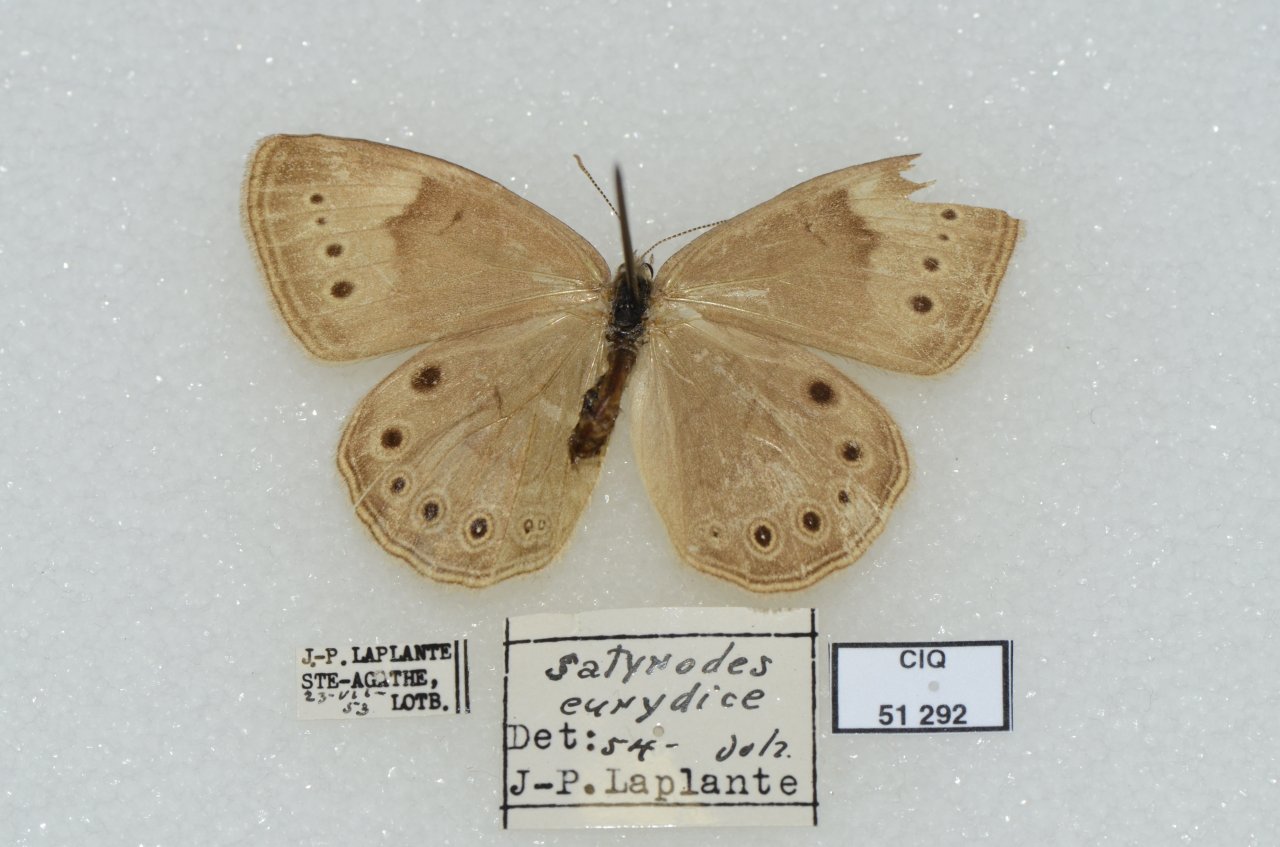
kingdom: Animalia
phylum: Arthropoda
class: Insecta
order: Lepidoptera
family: Nymphalidae
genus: Lethe
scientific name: Lethe eurydice
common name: Eyed Brown
